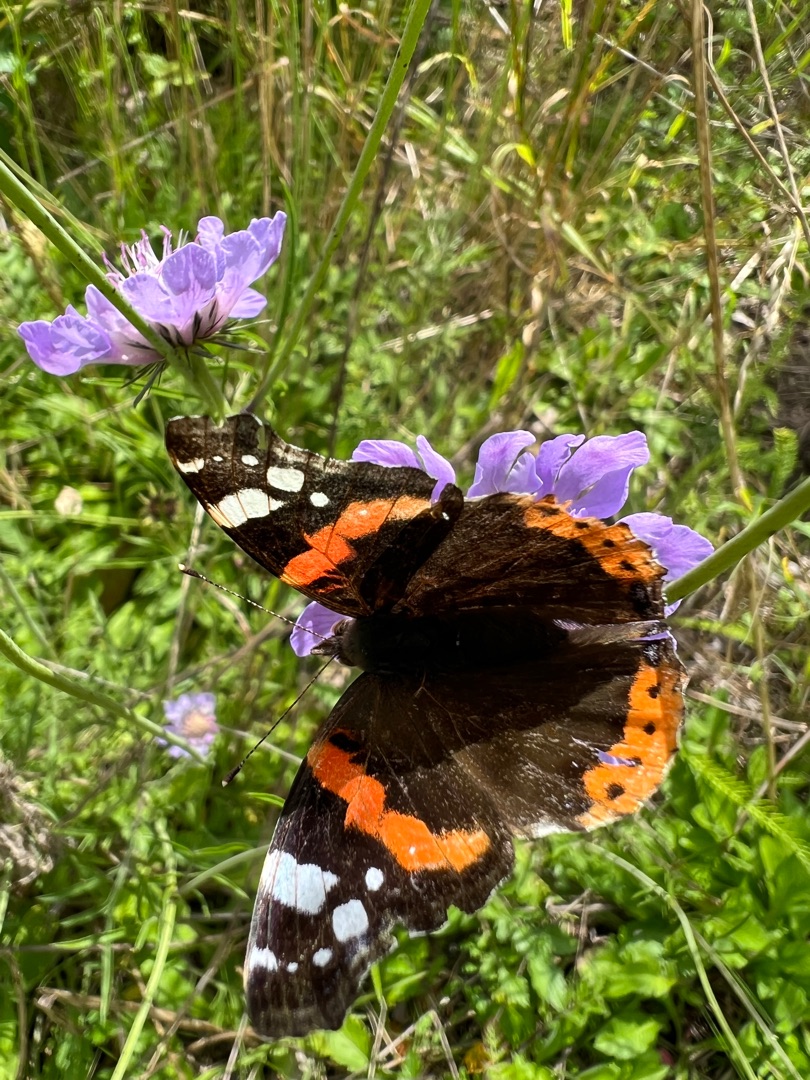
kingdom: Animalia
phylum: Arthropoda
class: Insecta
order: Lepidoptera
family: Nymphalidae
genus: Vanessa
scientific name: Vanessa atalanta
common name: Admiral
